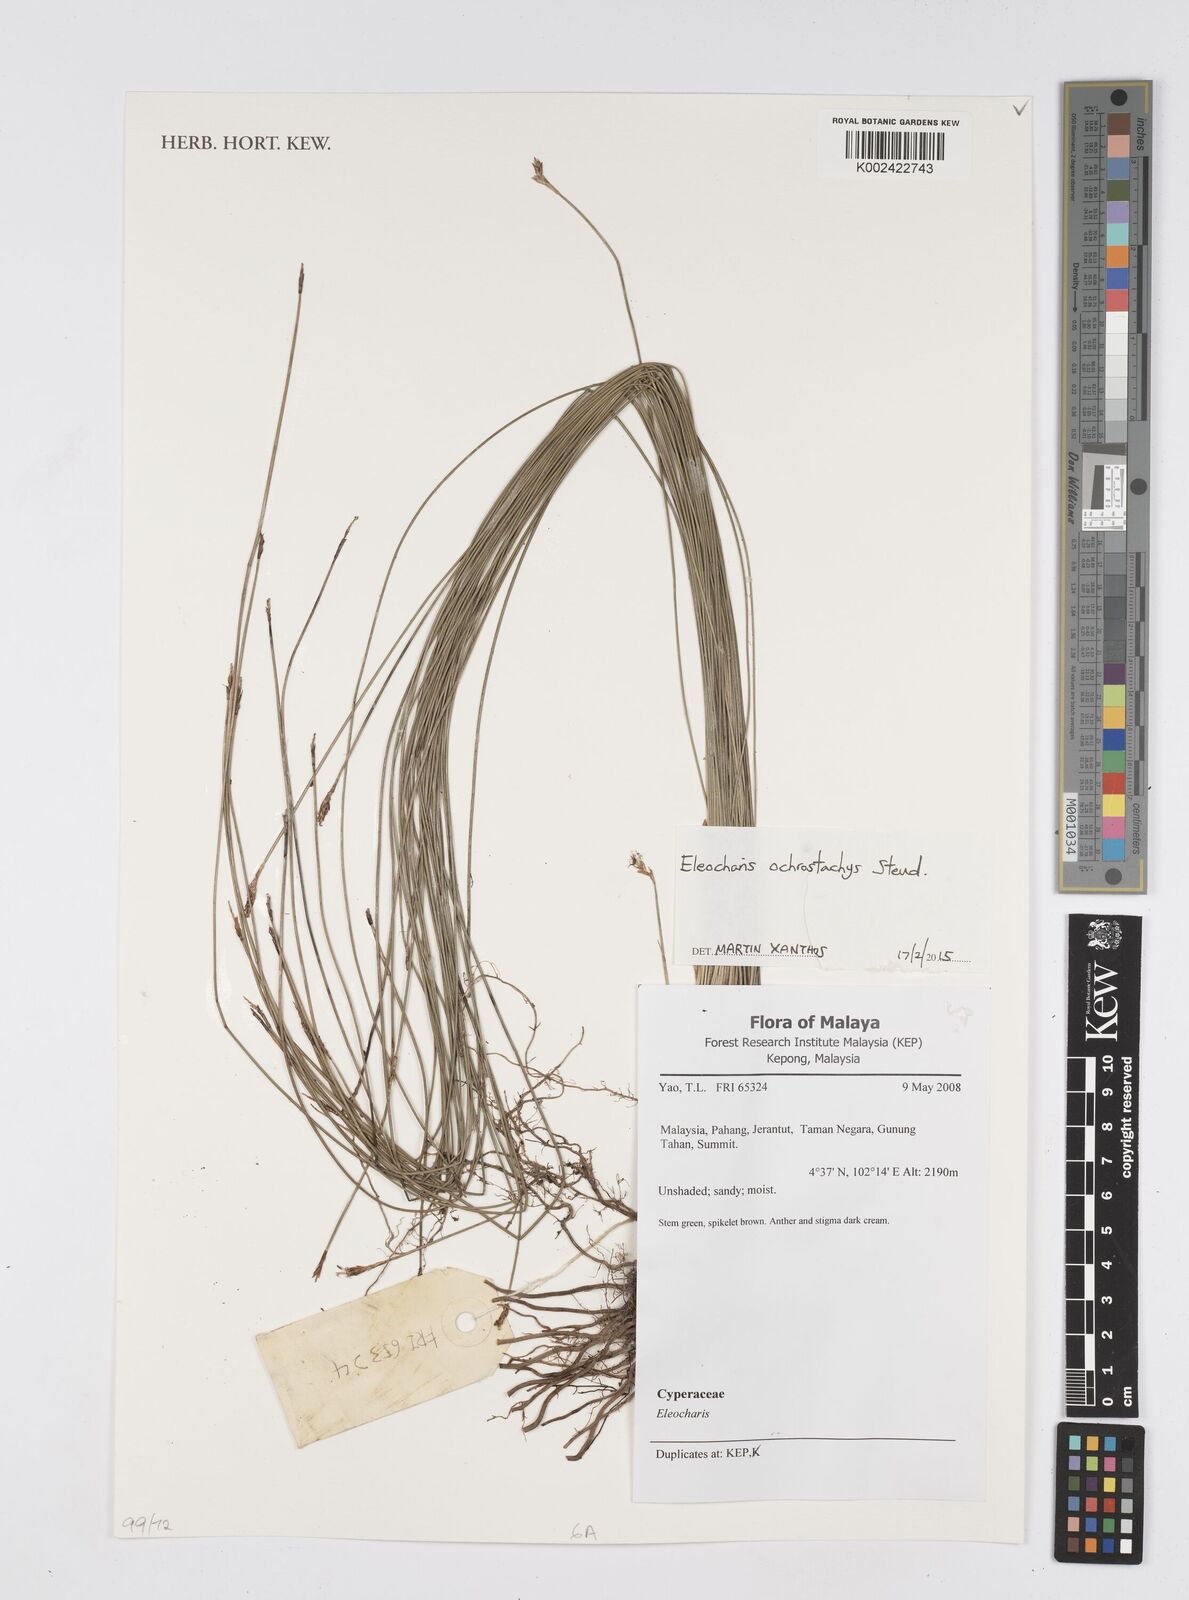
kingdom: Plantae
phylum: Tracheophyta
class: Liliopsida
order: Poales
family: Cyperaceae
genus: Eleocharis
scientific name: Eleocharis ochrostachys
